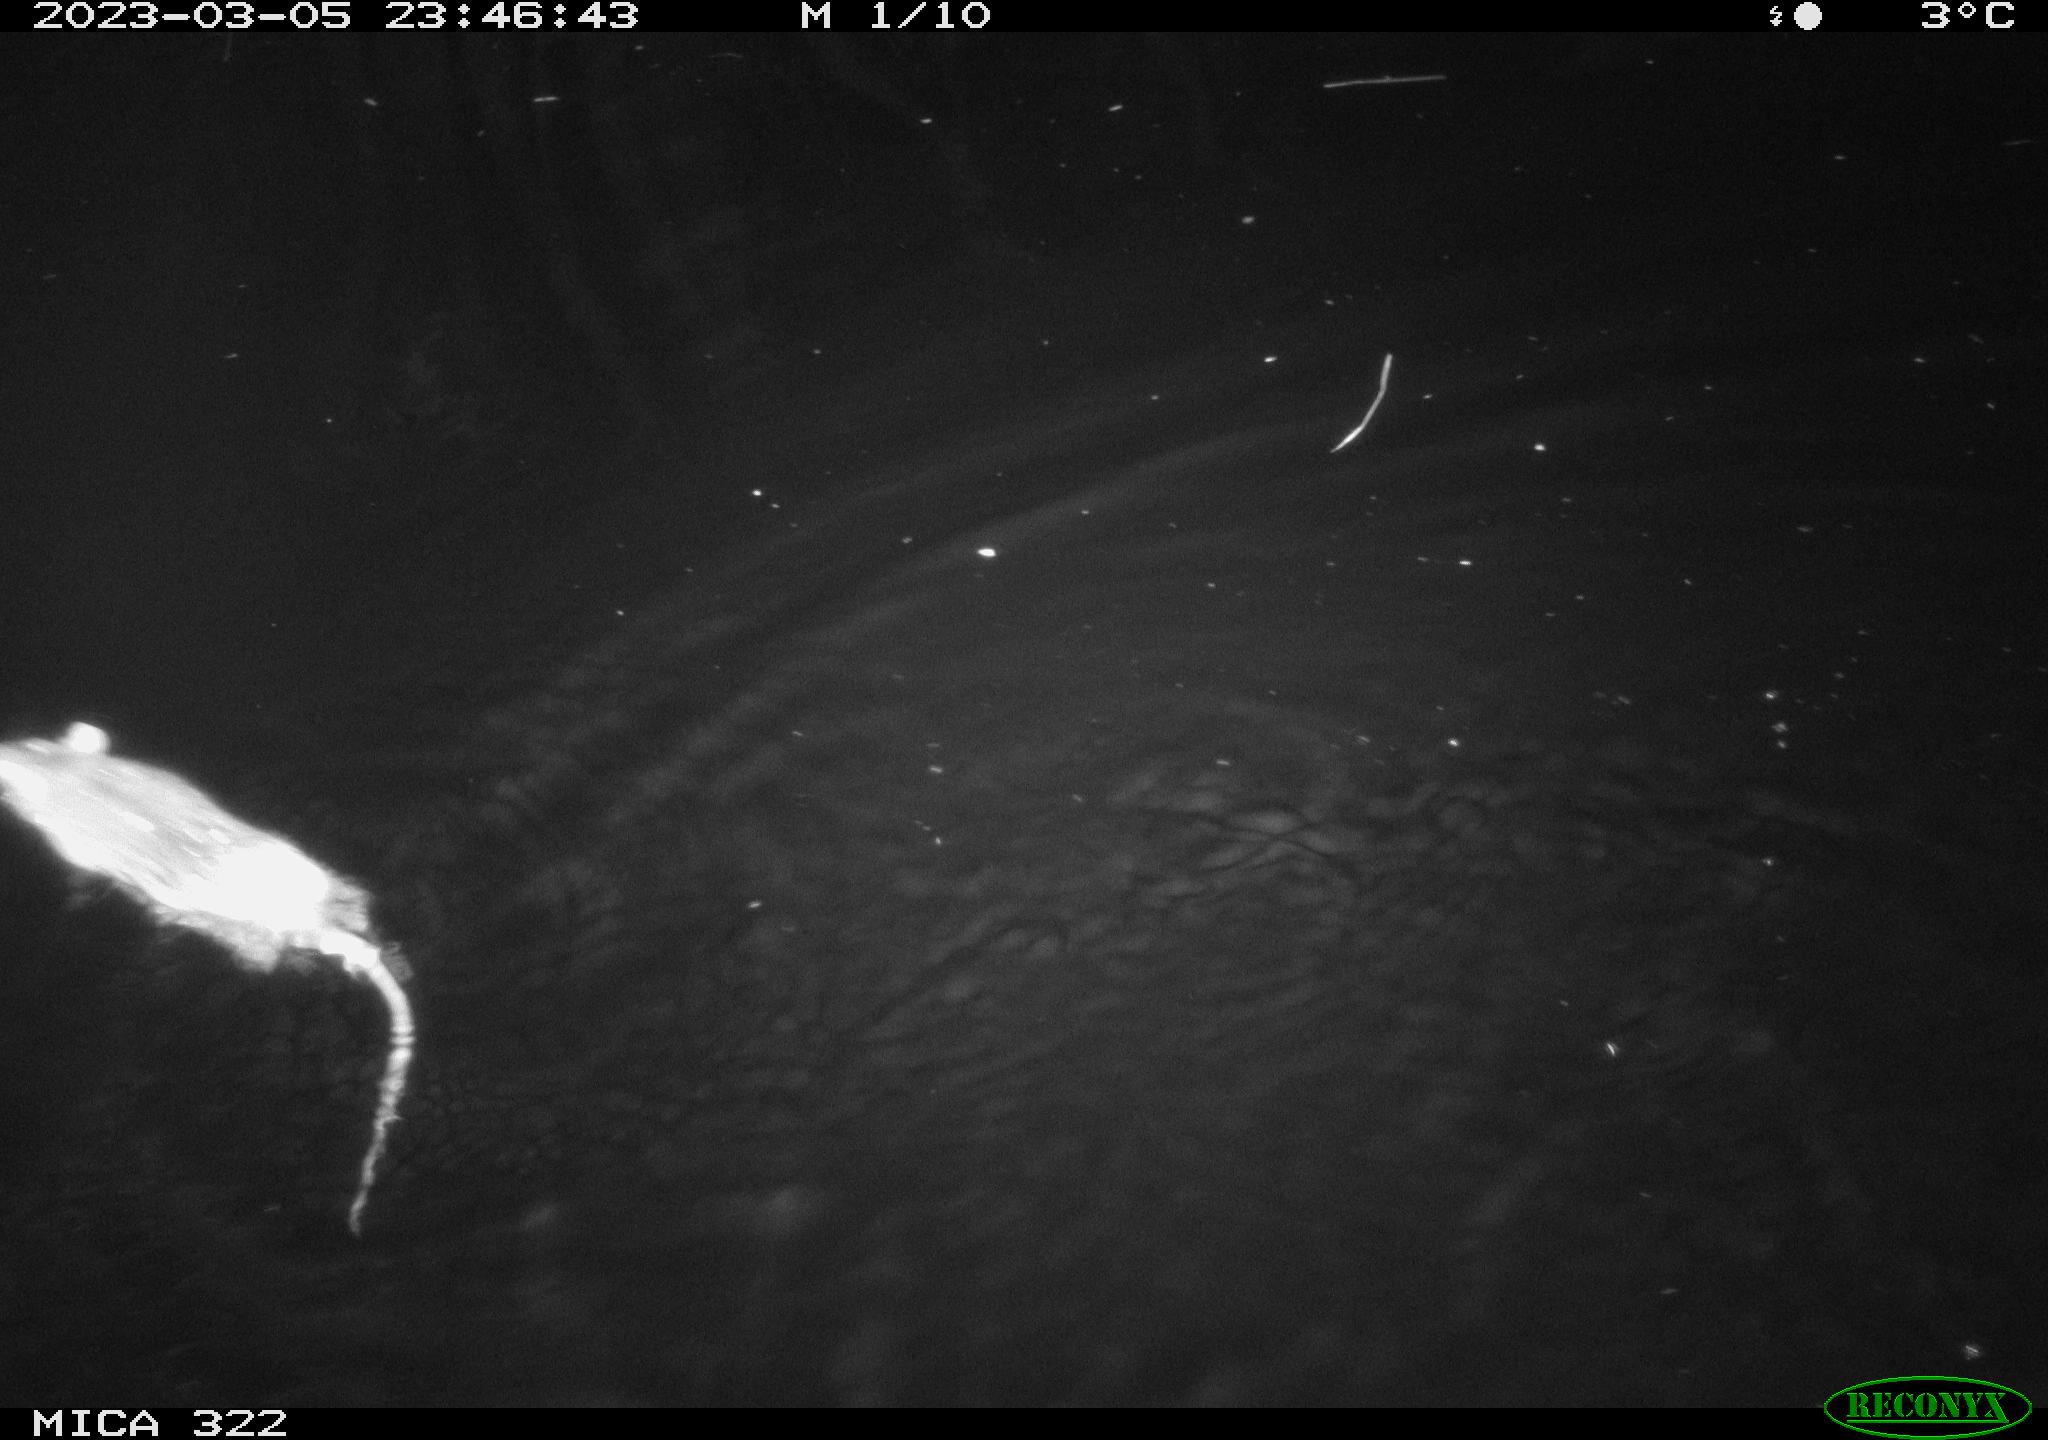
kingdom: Animalia
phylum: Chordata
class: Mammalia
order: Rodentia
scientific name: Rodentia
